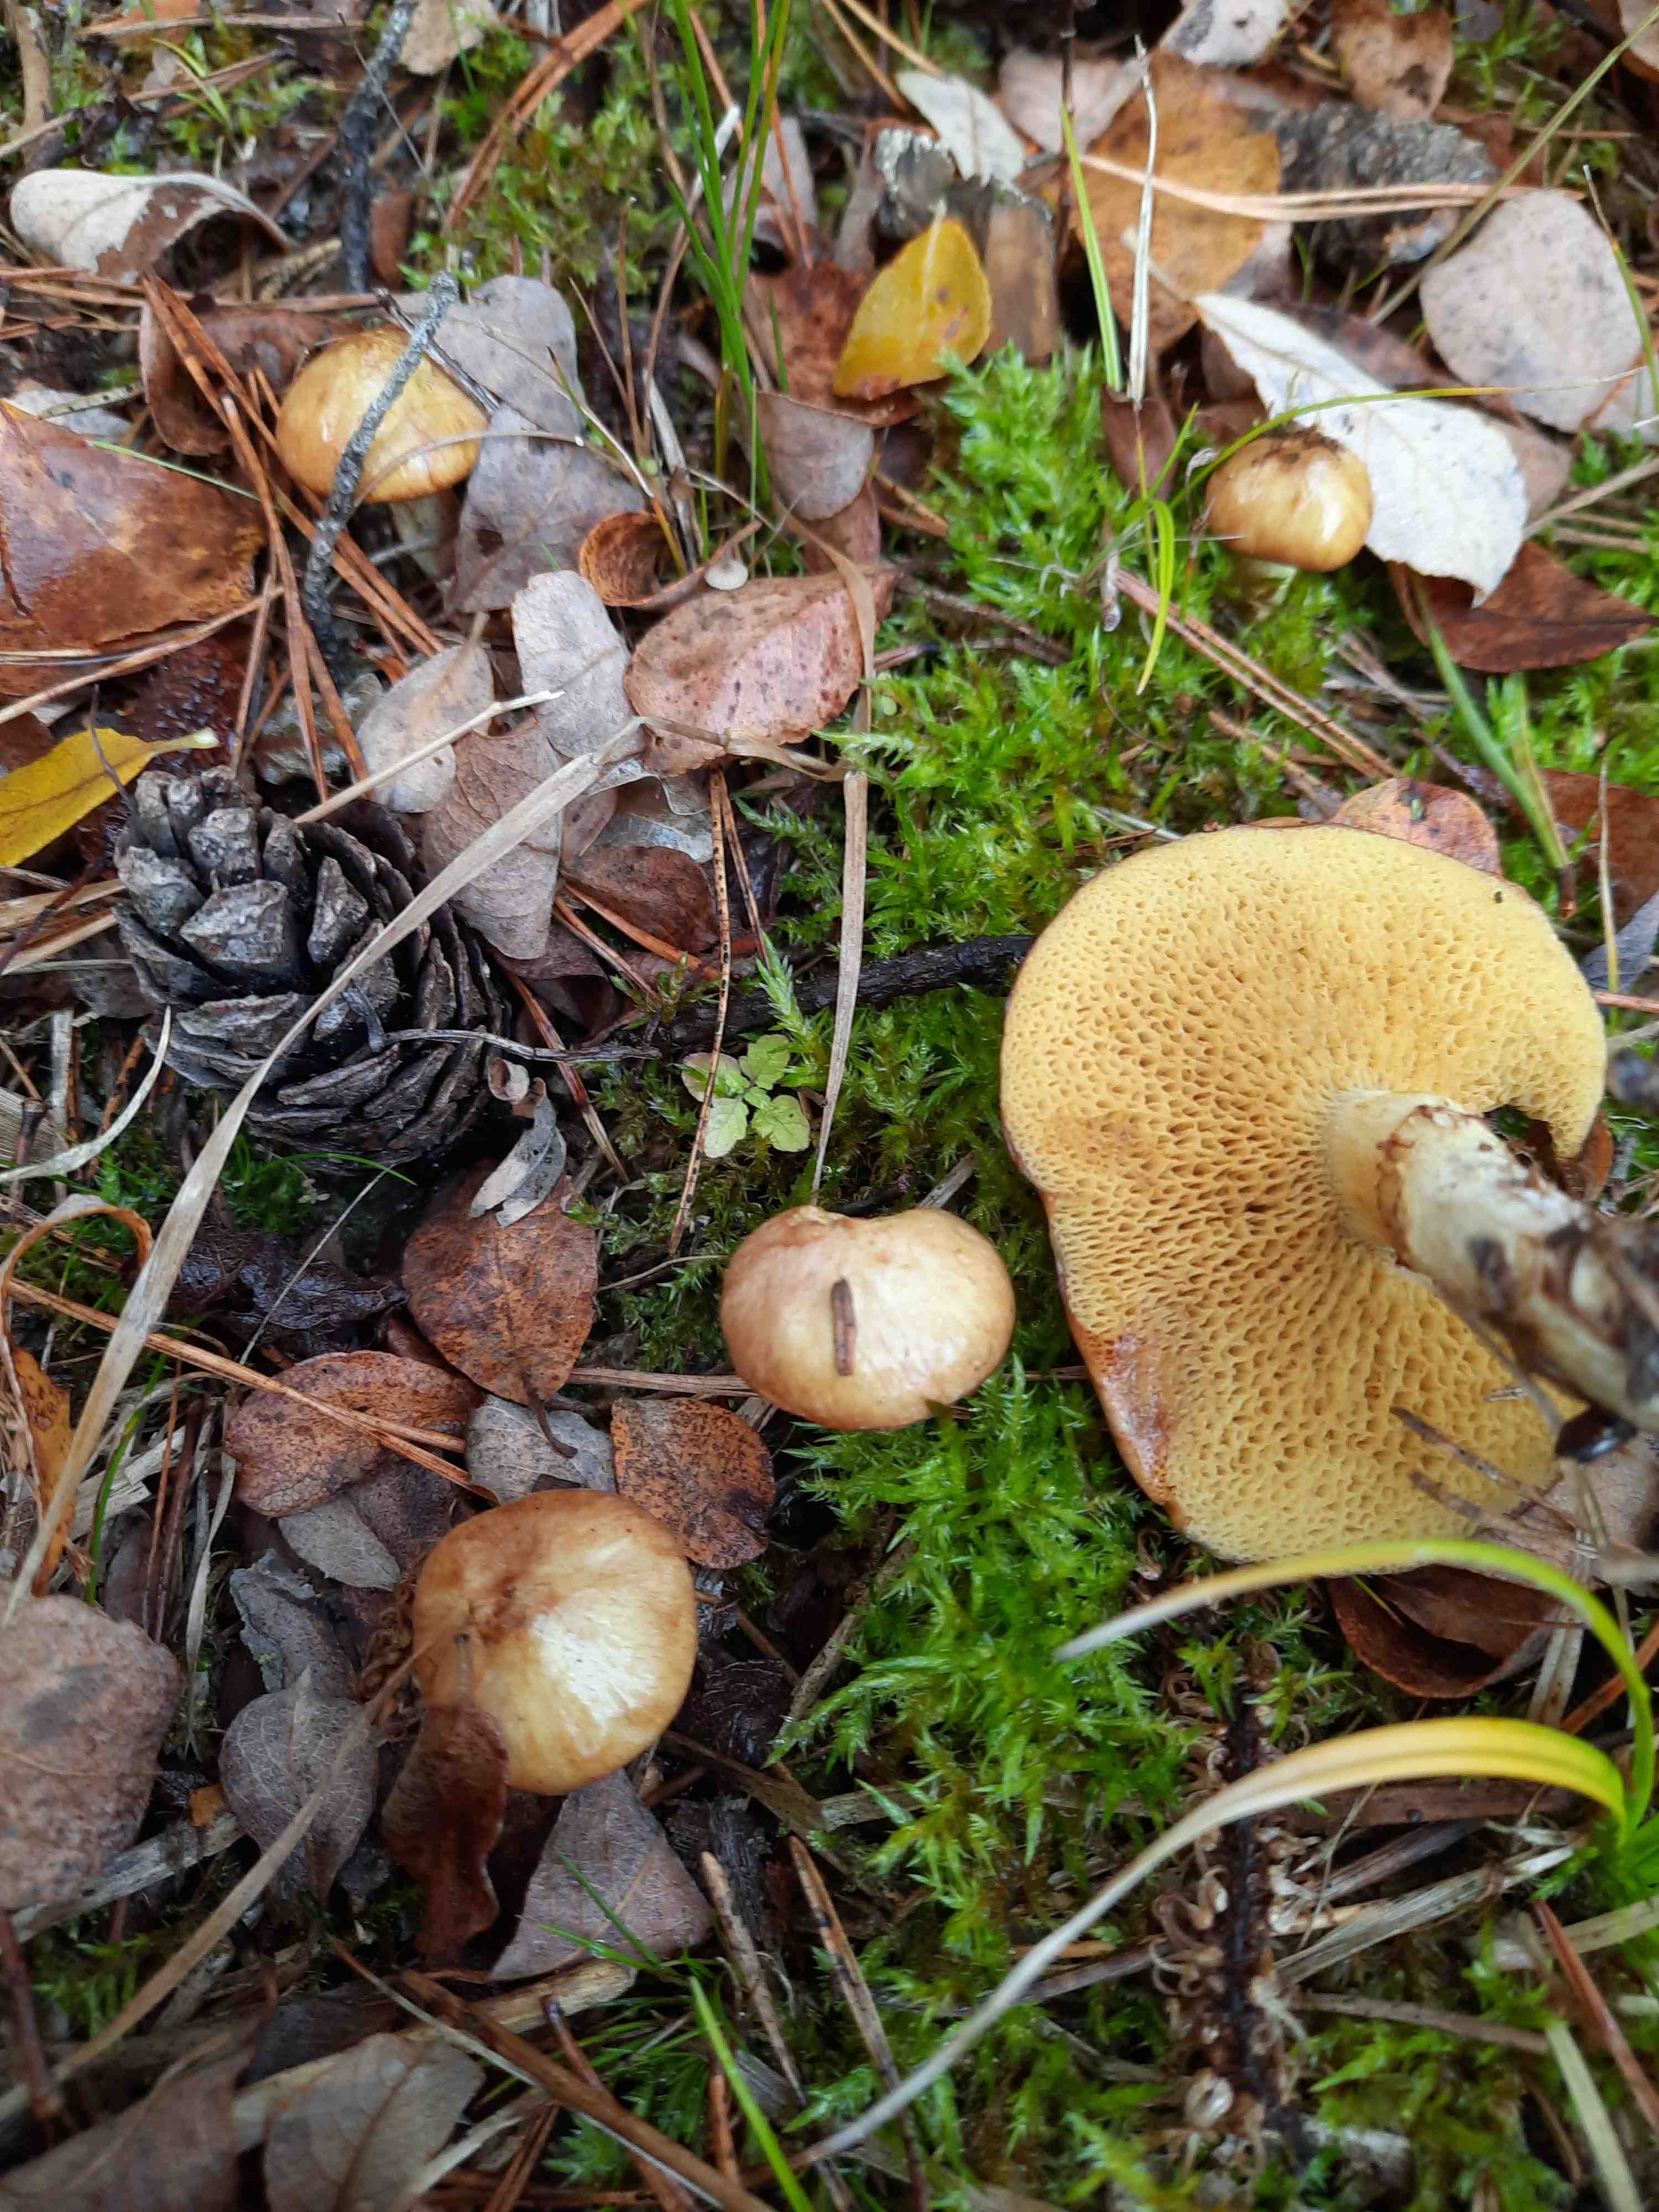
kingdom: Fungi
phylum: Basidiomycota
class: Agaricomycetes
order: Boletales
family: Suillaceae
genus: Suillus
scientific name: Suillus flavidus
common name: mose-slimrørhat
